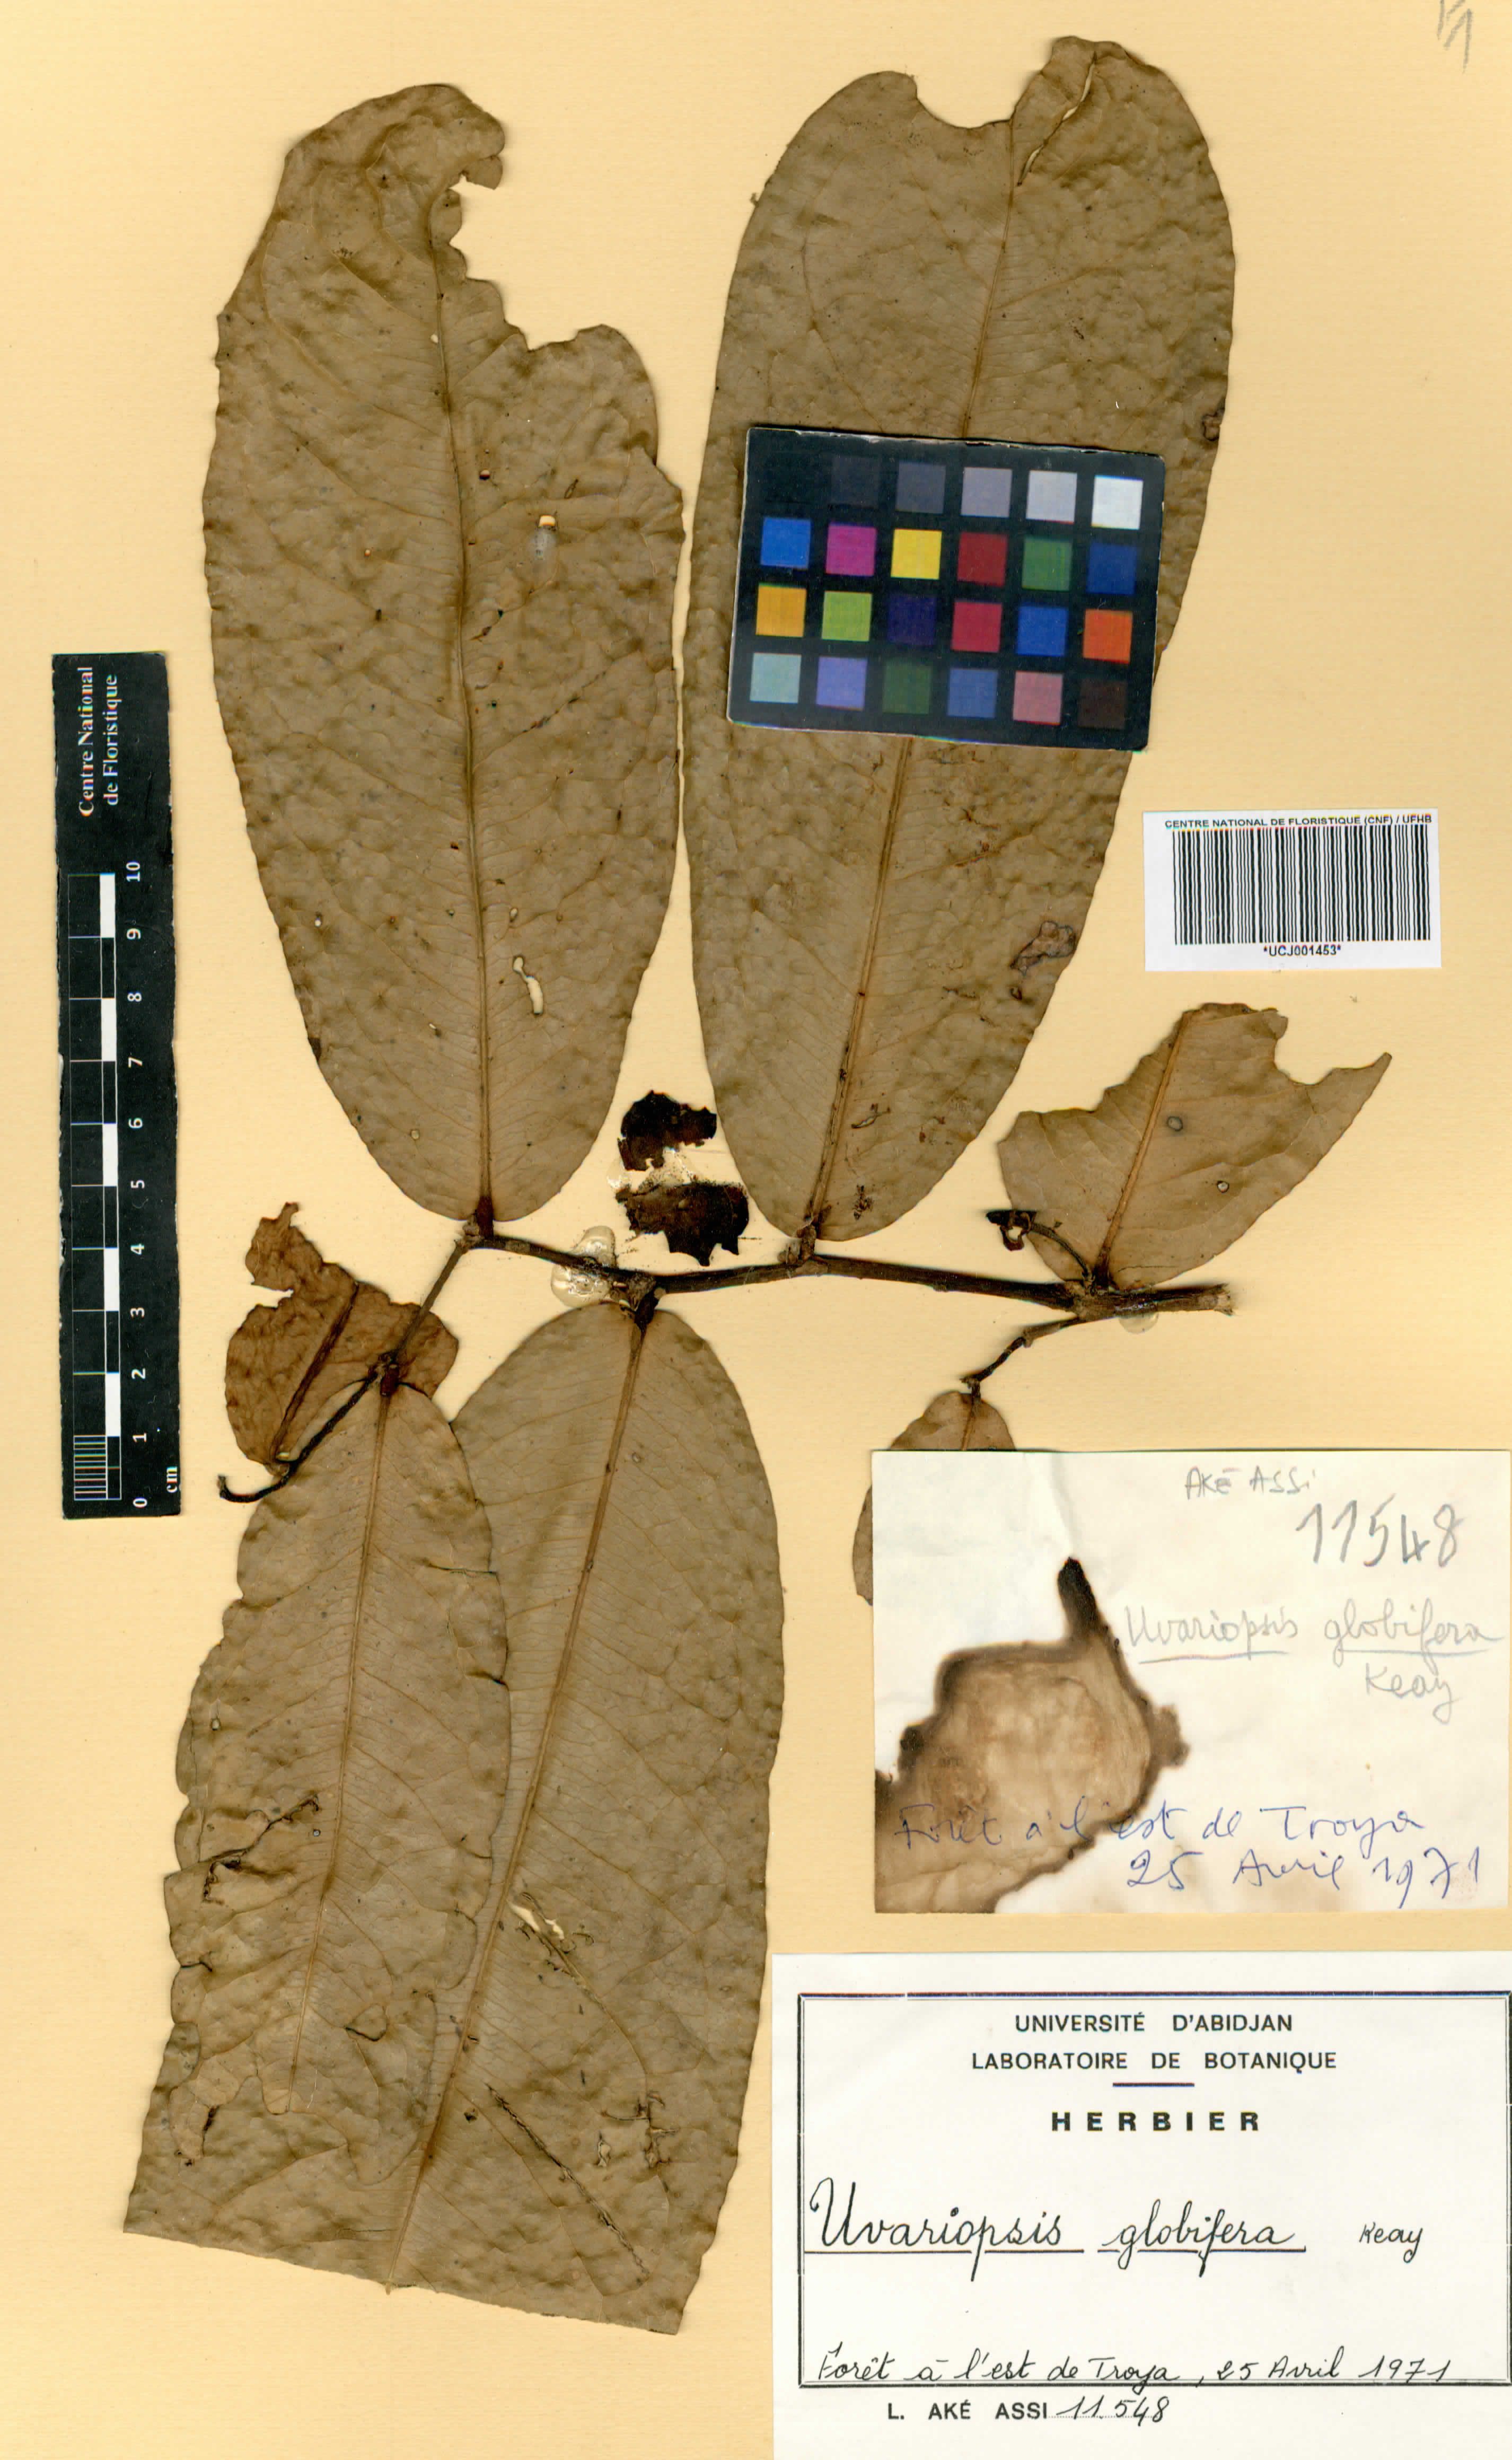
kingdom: Plantae
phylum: Tracheophyta
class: Magnoliopsida
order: Magnoliales
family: Annonaceae
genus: Uvariopsis
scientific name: Uvariopsis globiflora
